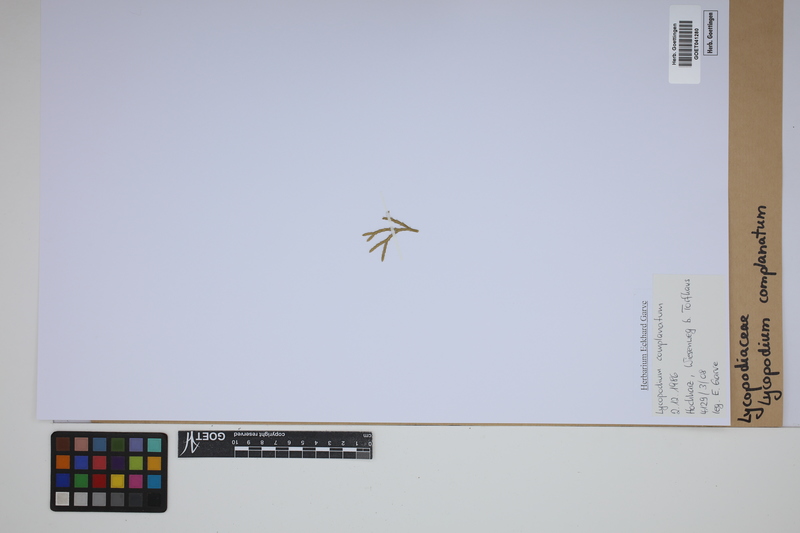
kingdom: Plantae
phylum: Tracheophyta
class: Lycopodiopsida
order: Lycopodiales
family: Lycopodiaceae
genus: Diphasiastrum
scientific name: Diphasiastrum complanatum
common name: Northern running-pine
